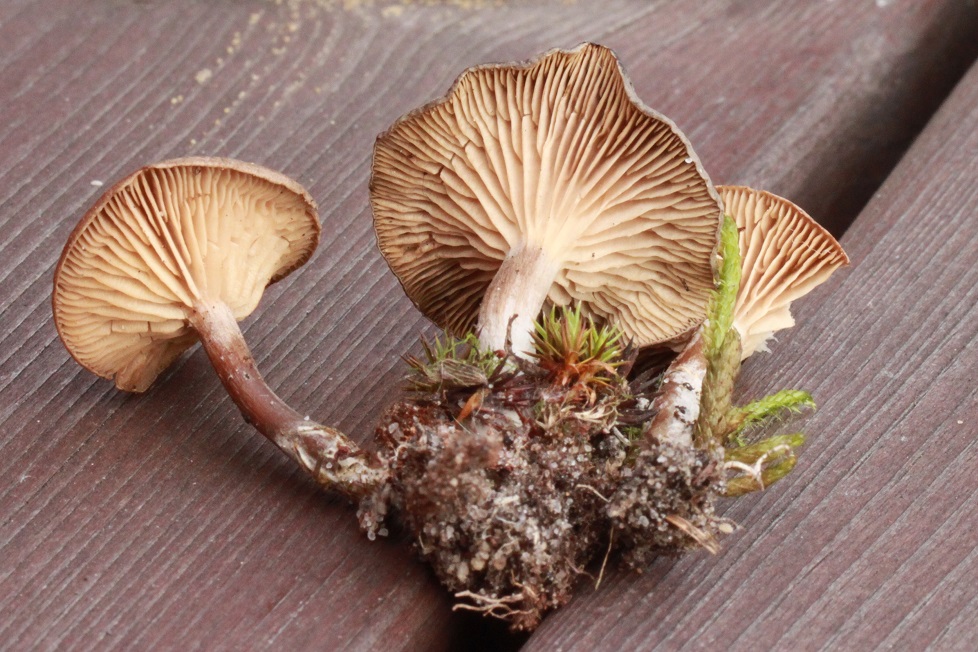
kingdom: Fungi
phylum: Basidiomycota
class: Agaricomycetes
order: Agaricales
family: Entolomataceae
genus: Clitopilus
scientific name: Clitopilus caelatus
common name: gråbrun troldhat
